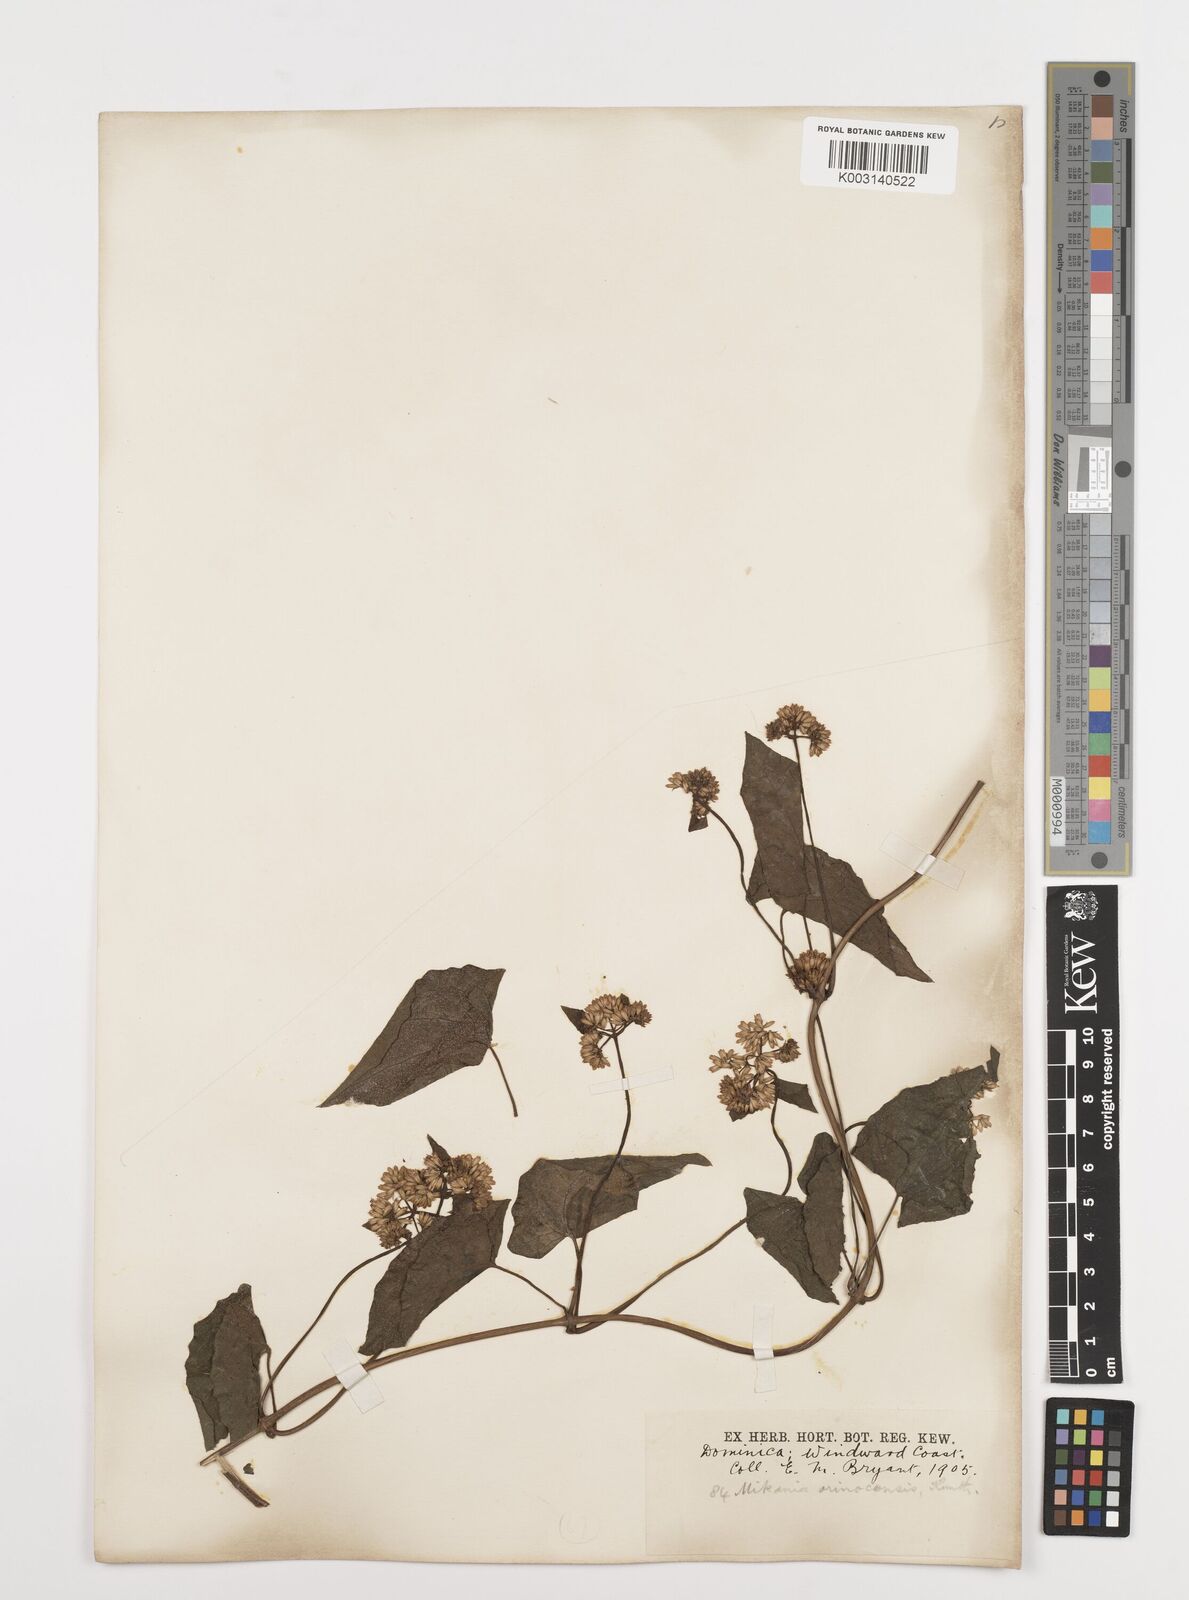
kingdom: Plantae
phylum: Tracheophyta
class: Magnoliopsida
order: Asterales
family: Asteraceae
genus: Mikania
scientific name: Mikania micrantha
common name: Mile-a-minute
